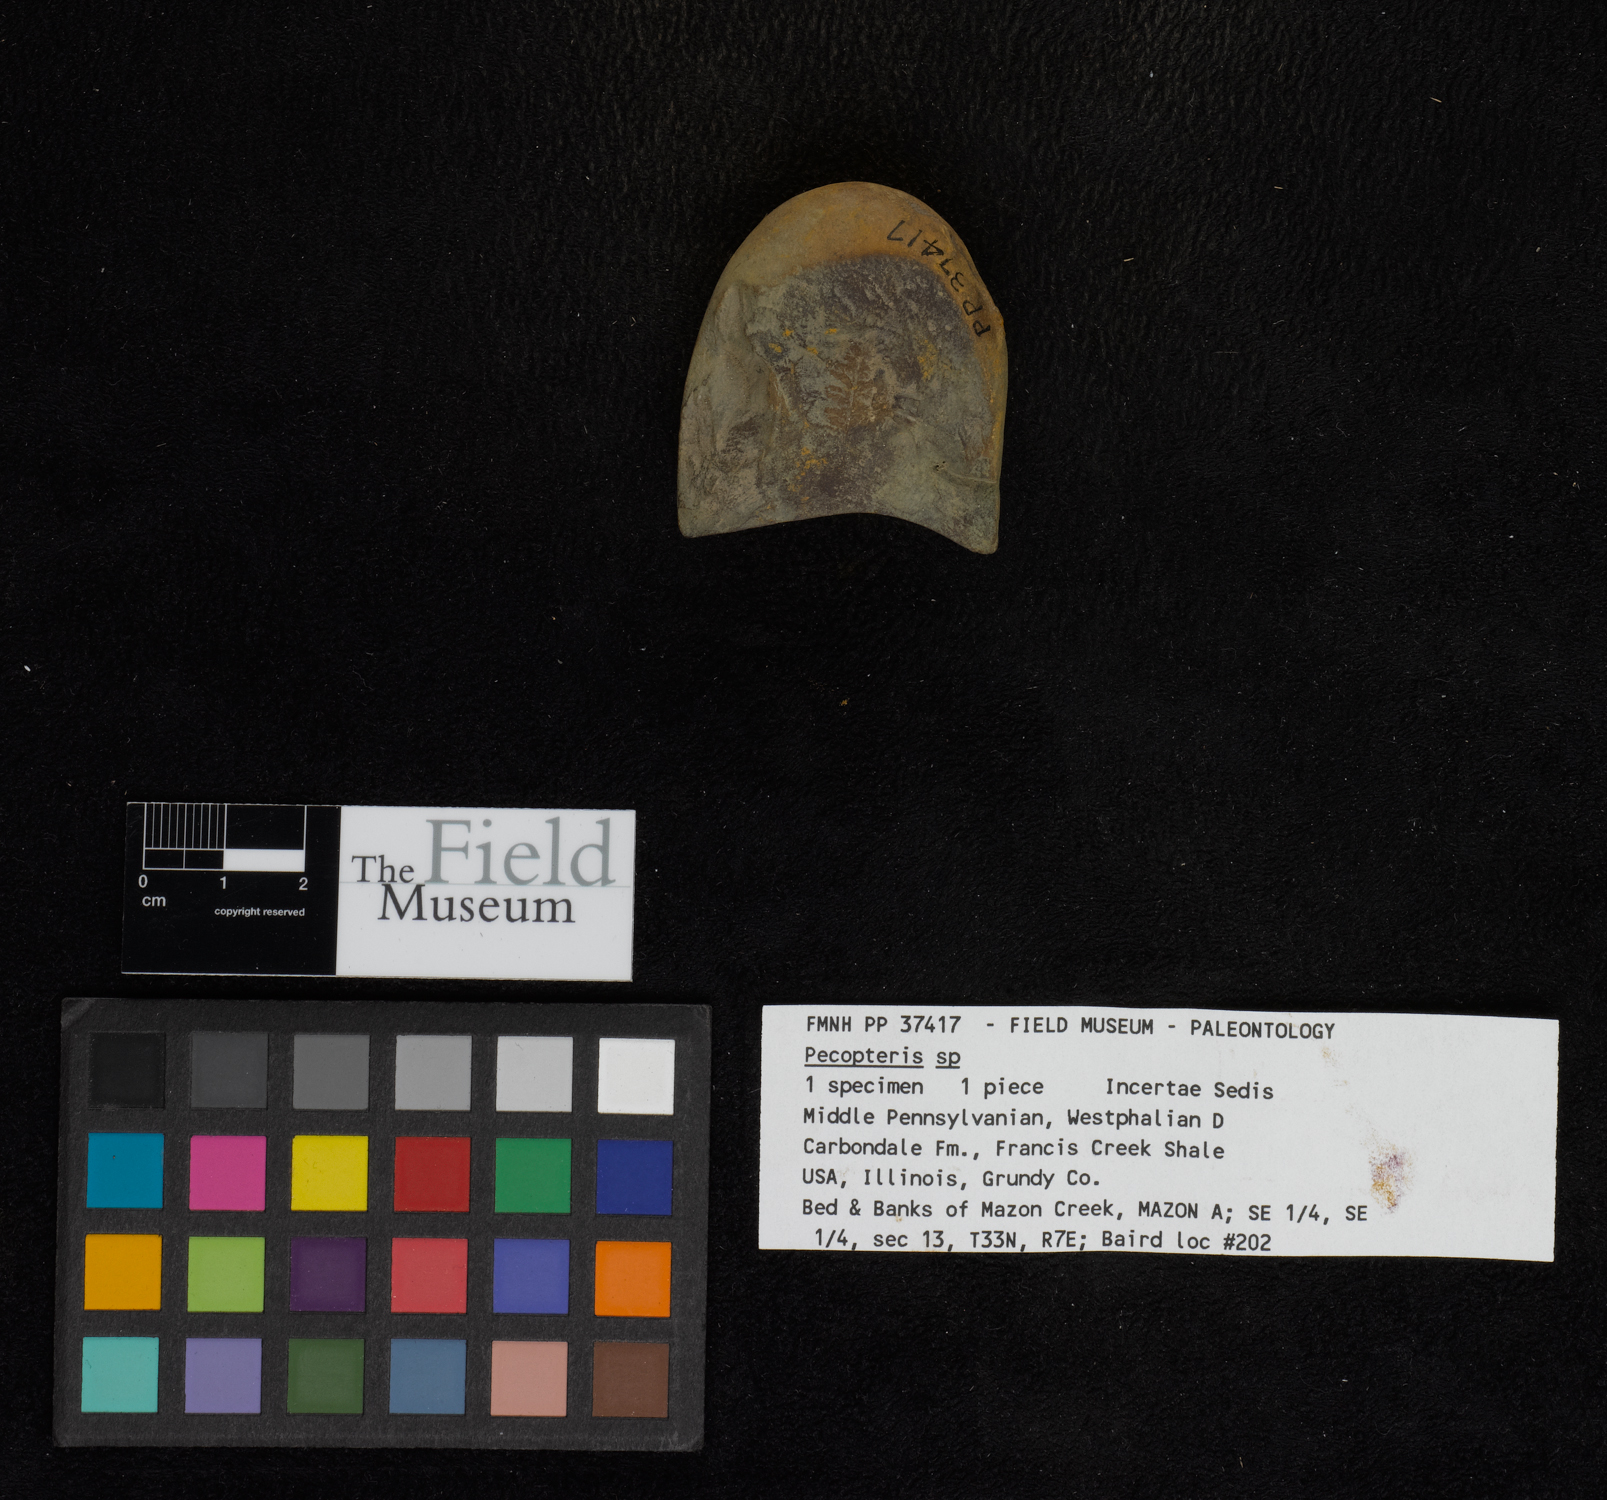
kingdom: Plantae
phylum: Tracheophyta
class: Polypodiopsida
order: Marattiales
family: Asterothecaceae
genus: Pecopteris
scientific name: Pecopteris
